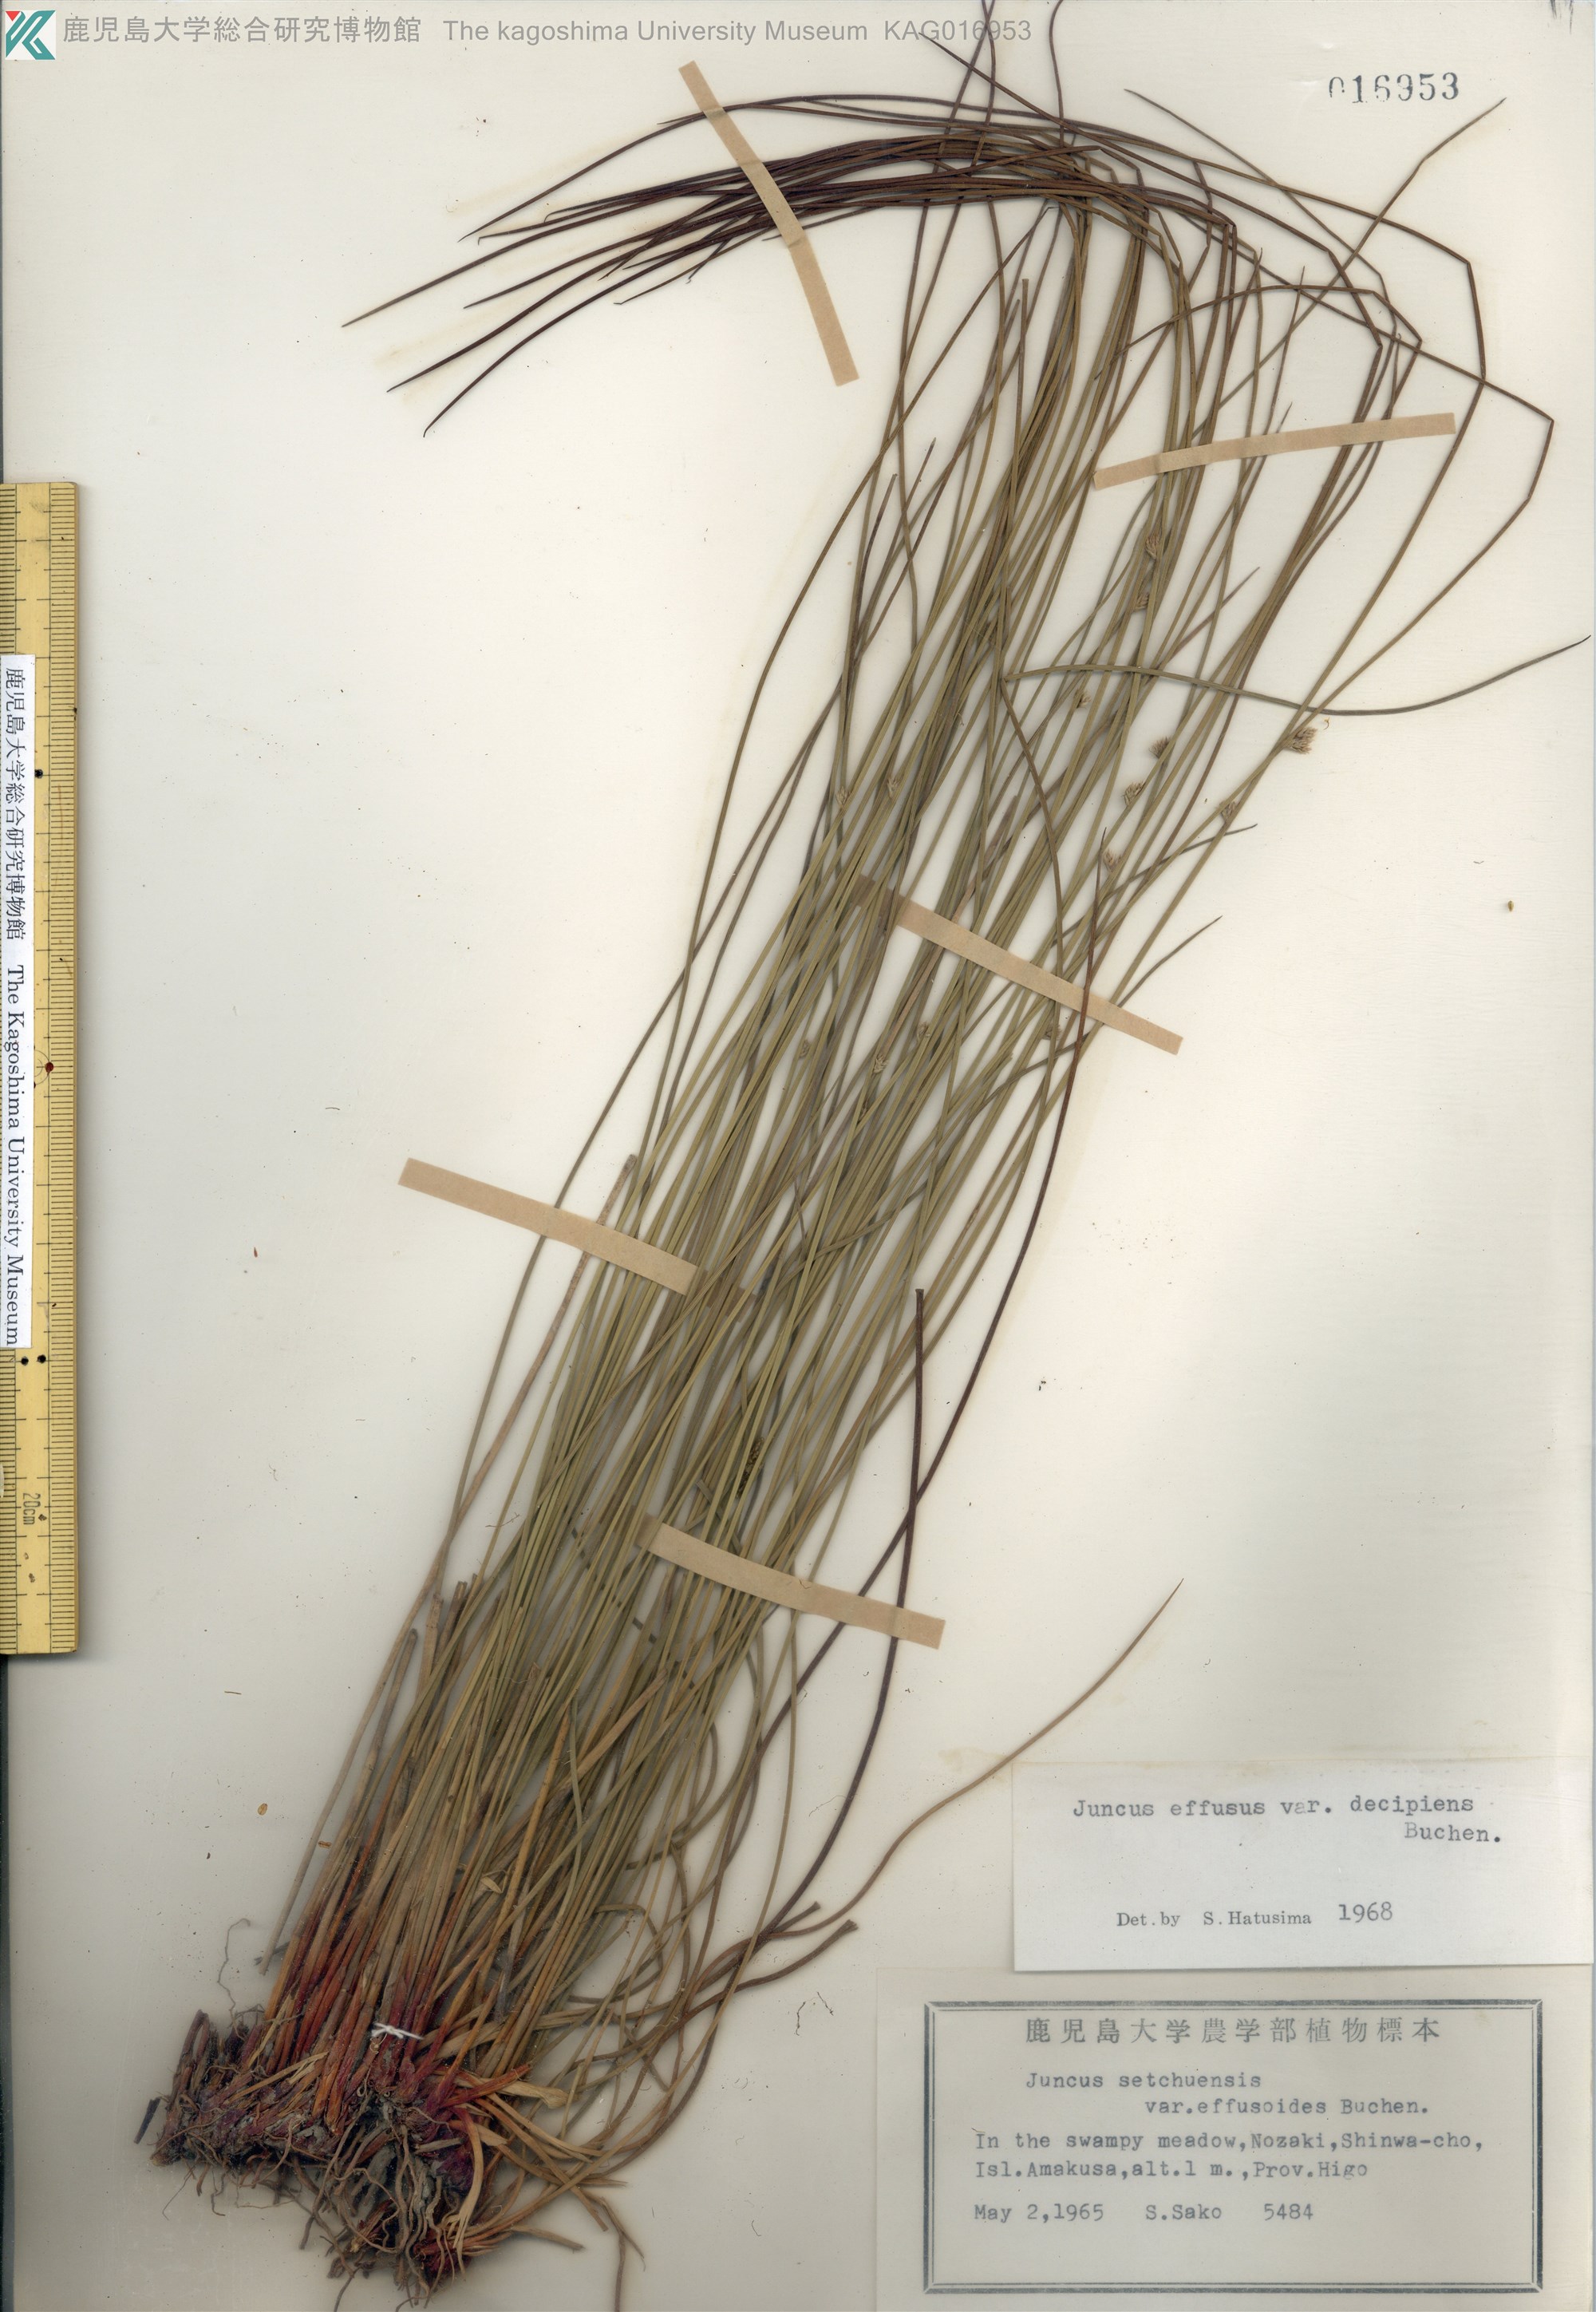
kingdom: Plantae
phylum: Tracheophyta
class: Liliopsida
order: Poales
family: Juncaceae
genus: Juncus
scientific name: Juncus decipiens
